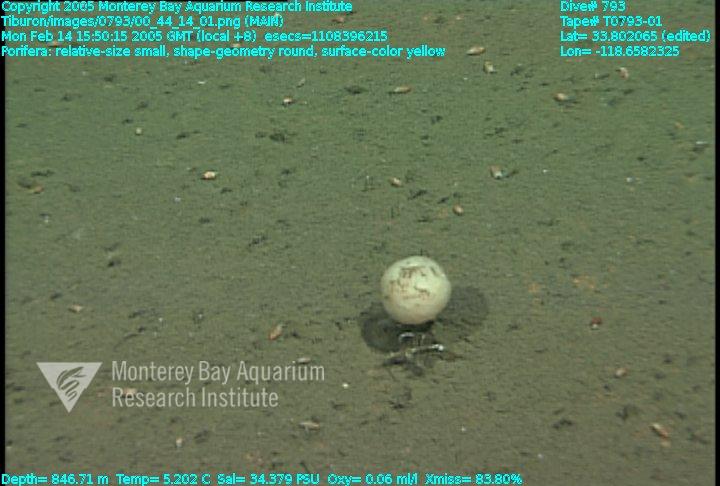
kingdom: Animalia
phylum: Porifera
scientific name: Porifera
